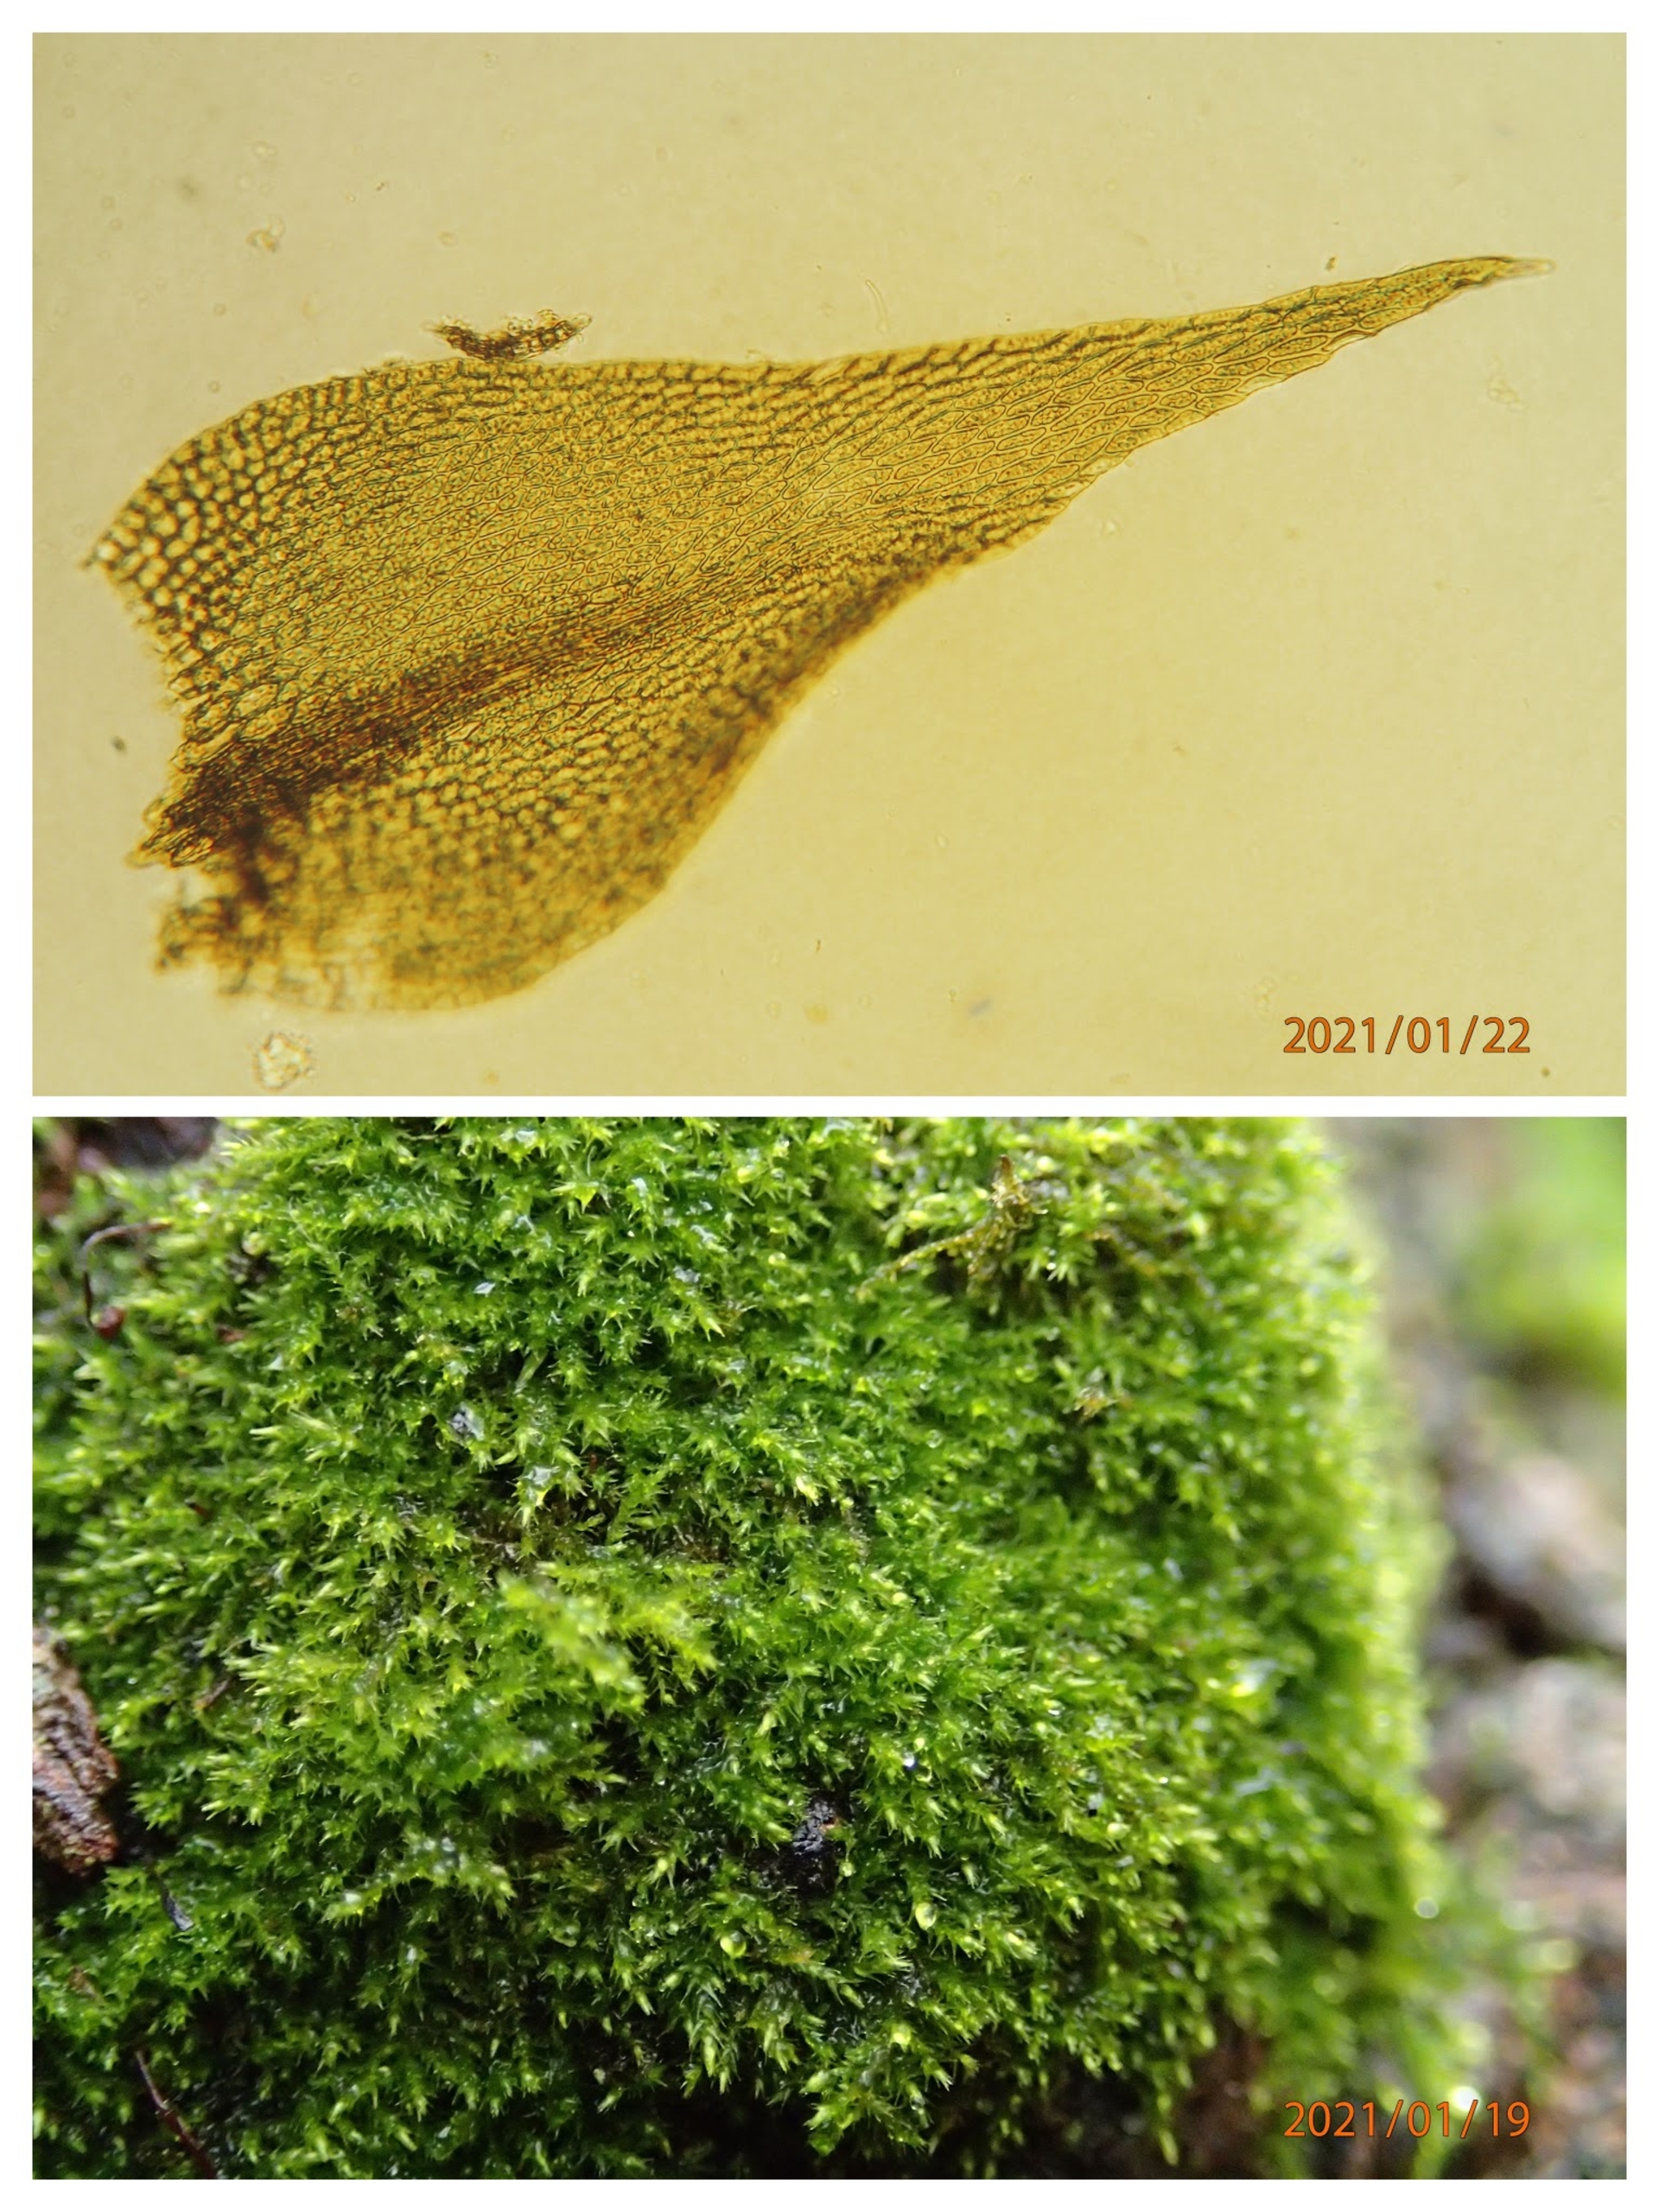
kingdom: Plantae
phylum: Bryophyta
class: Bryopsida
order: Hypnales
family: Amblystegiaceae
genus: Amblystegium
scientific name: Amblystegium serpens
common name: Almindelig krybmos
